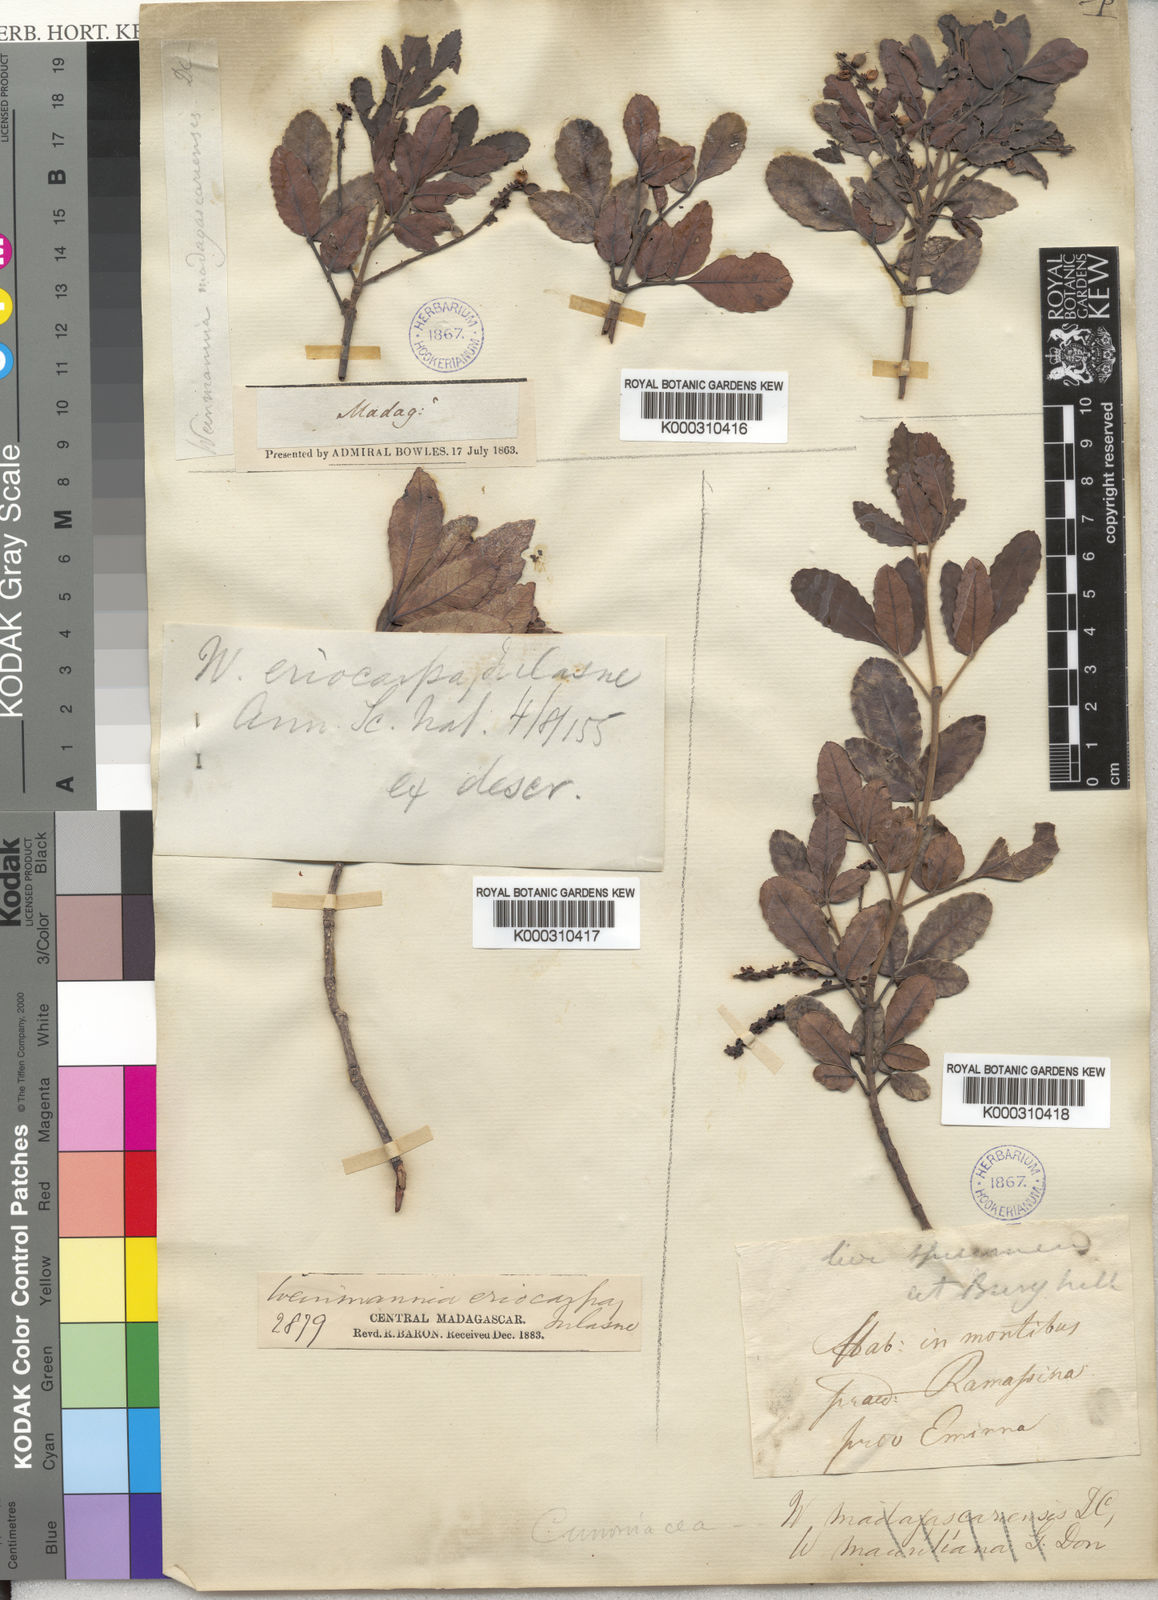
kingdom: Plantae
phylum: Tracheophyta
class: Magnoliopsida
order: Oxalidales
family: Cunoniaceae
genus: Pterophylla
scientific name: Pterophylla eriocarpa
